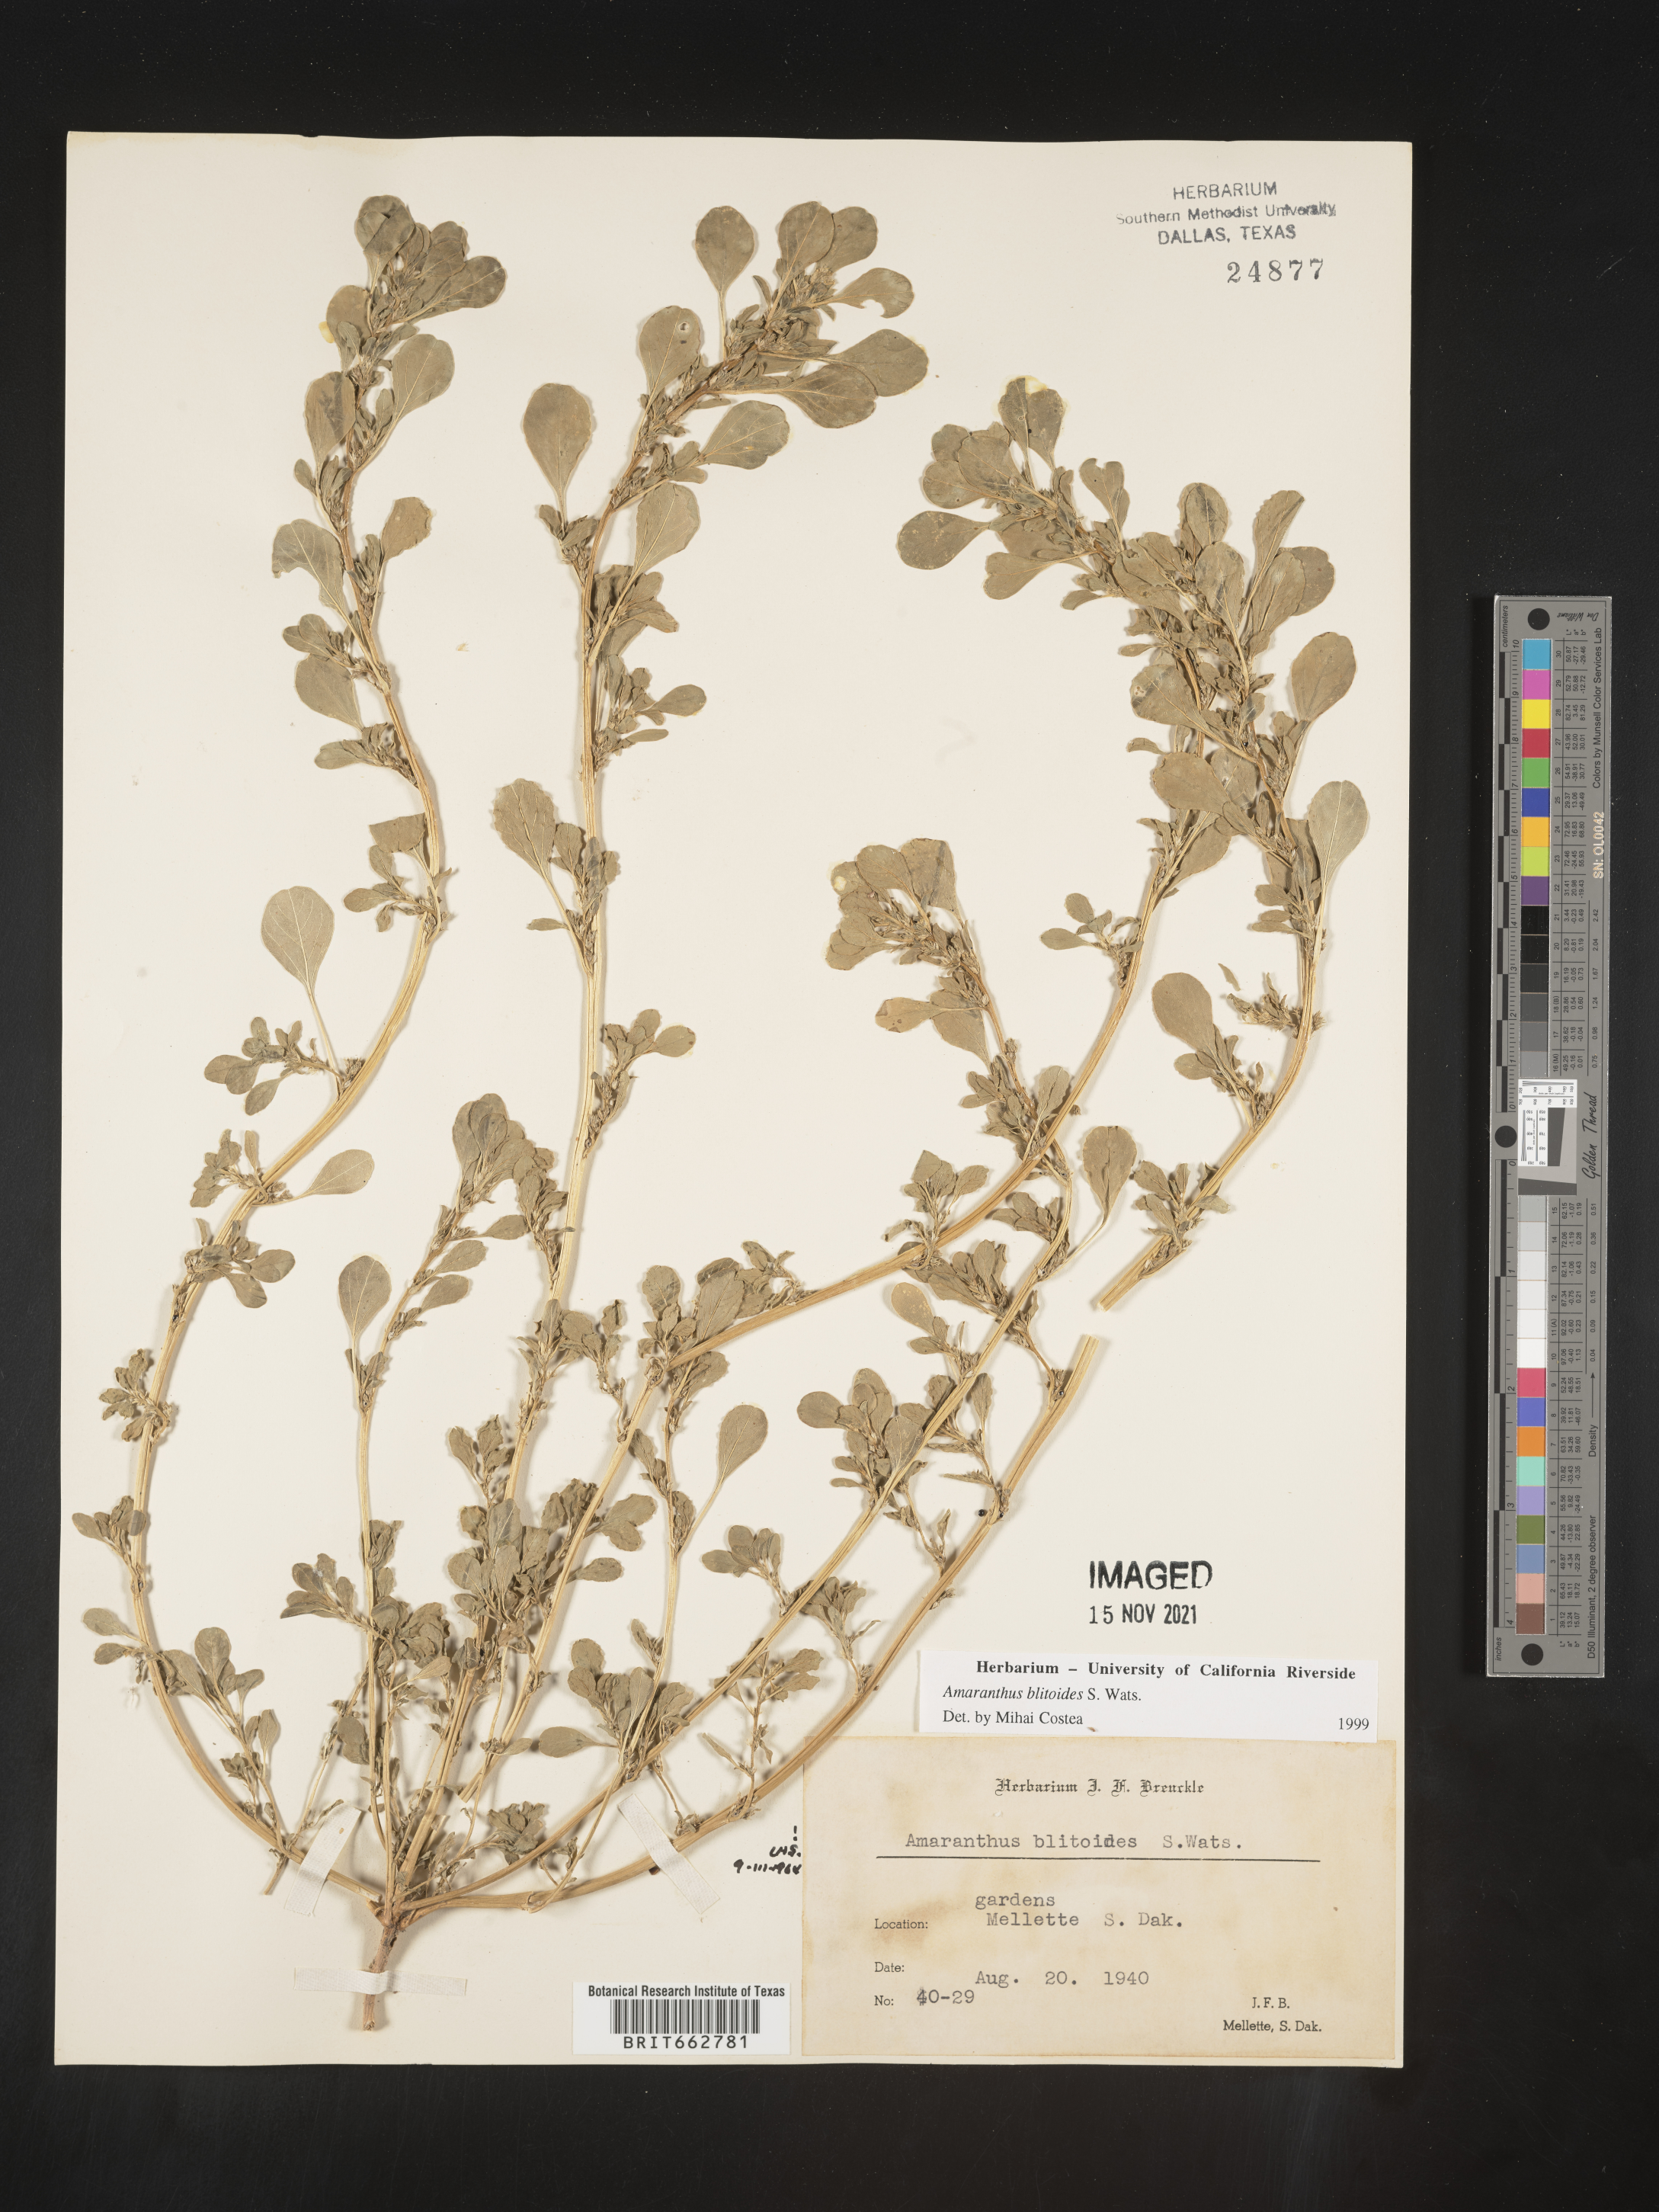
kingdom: Plantae
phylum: Tracheophyta
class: Magnoliopsida
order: Caryophyllales
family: Amaranthaceae
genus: Amaranthus
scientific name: Amaranthus blitoides
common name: Prostrate pigweed
